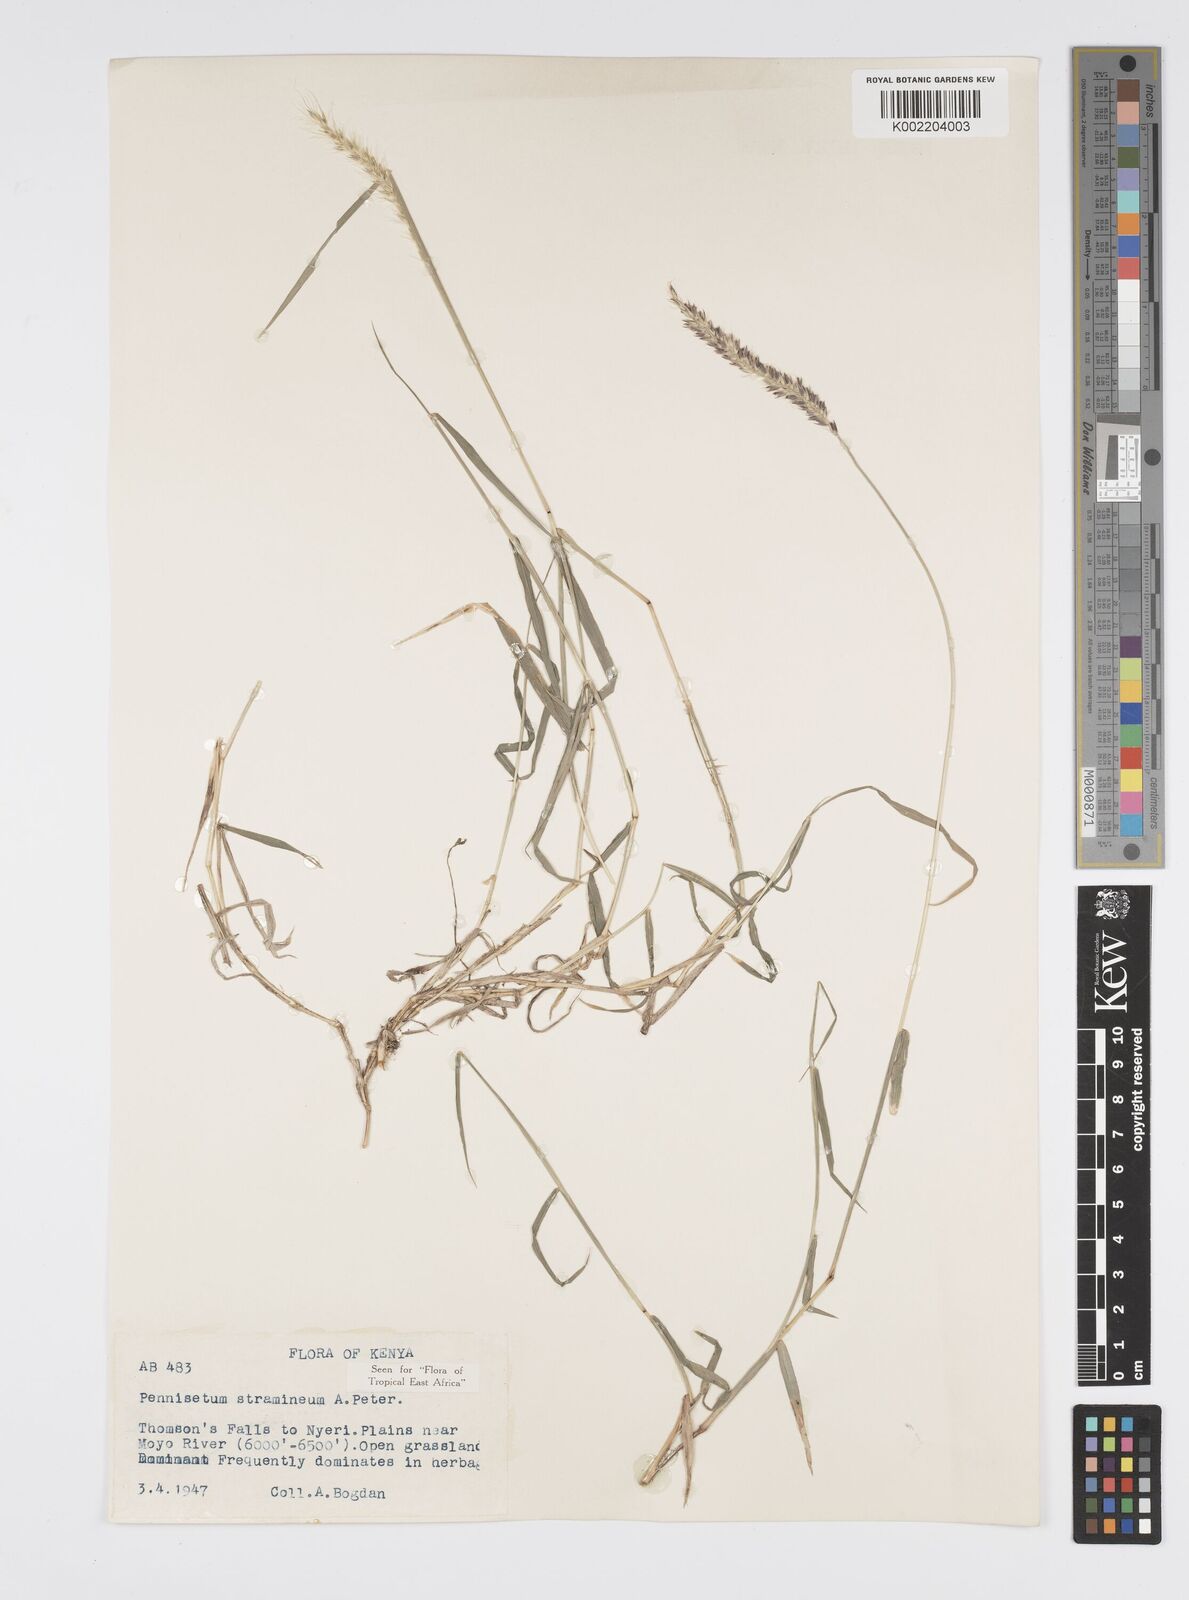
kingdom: Plantae
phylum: Tracheophyta
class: Liliopsida
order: Poales
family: Poaceae
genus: Cenchrus
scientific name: Cenchrus stramineus
